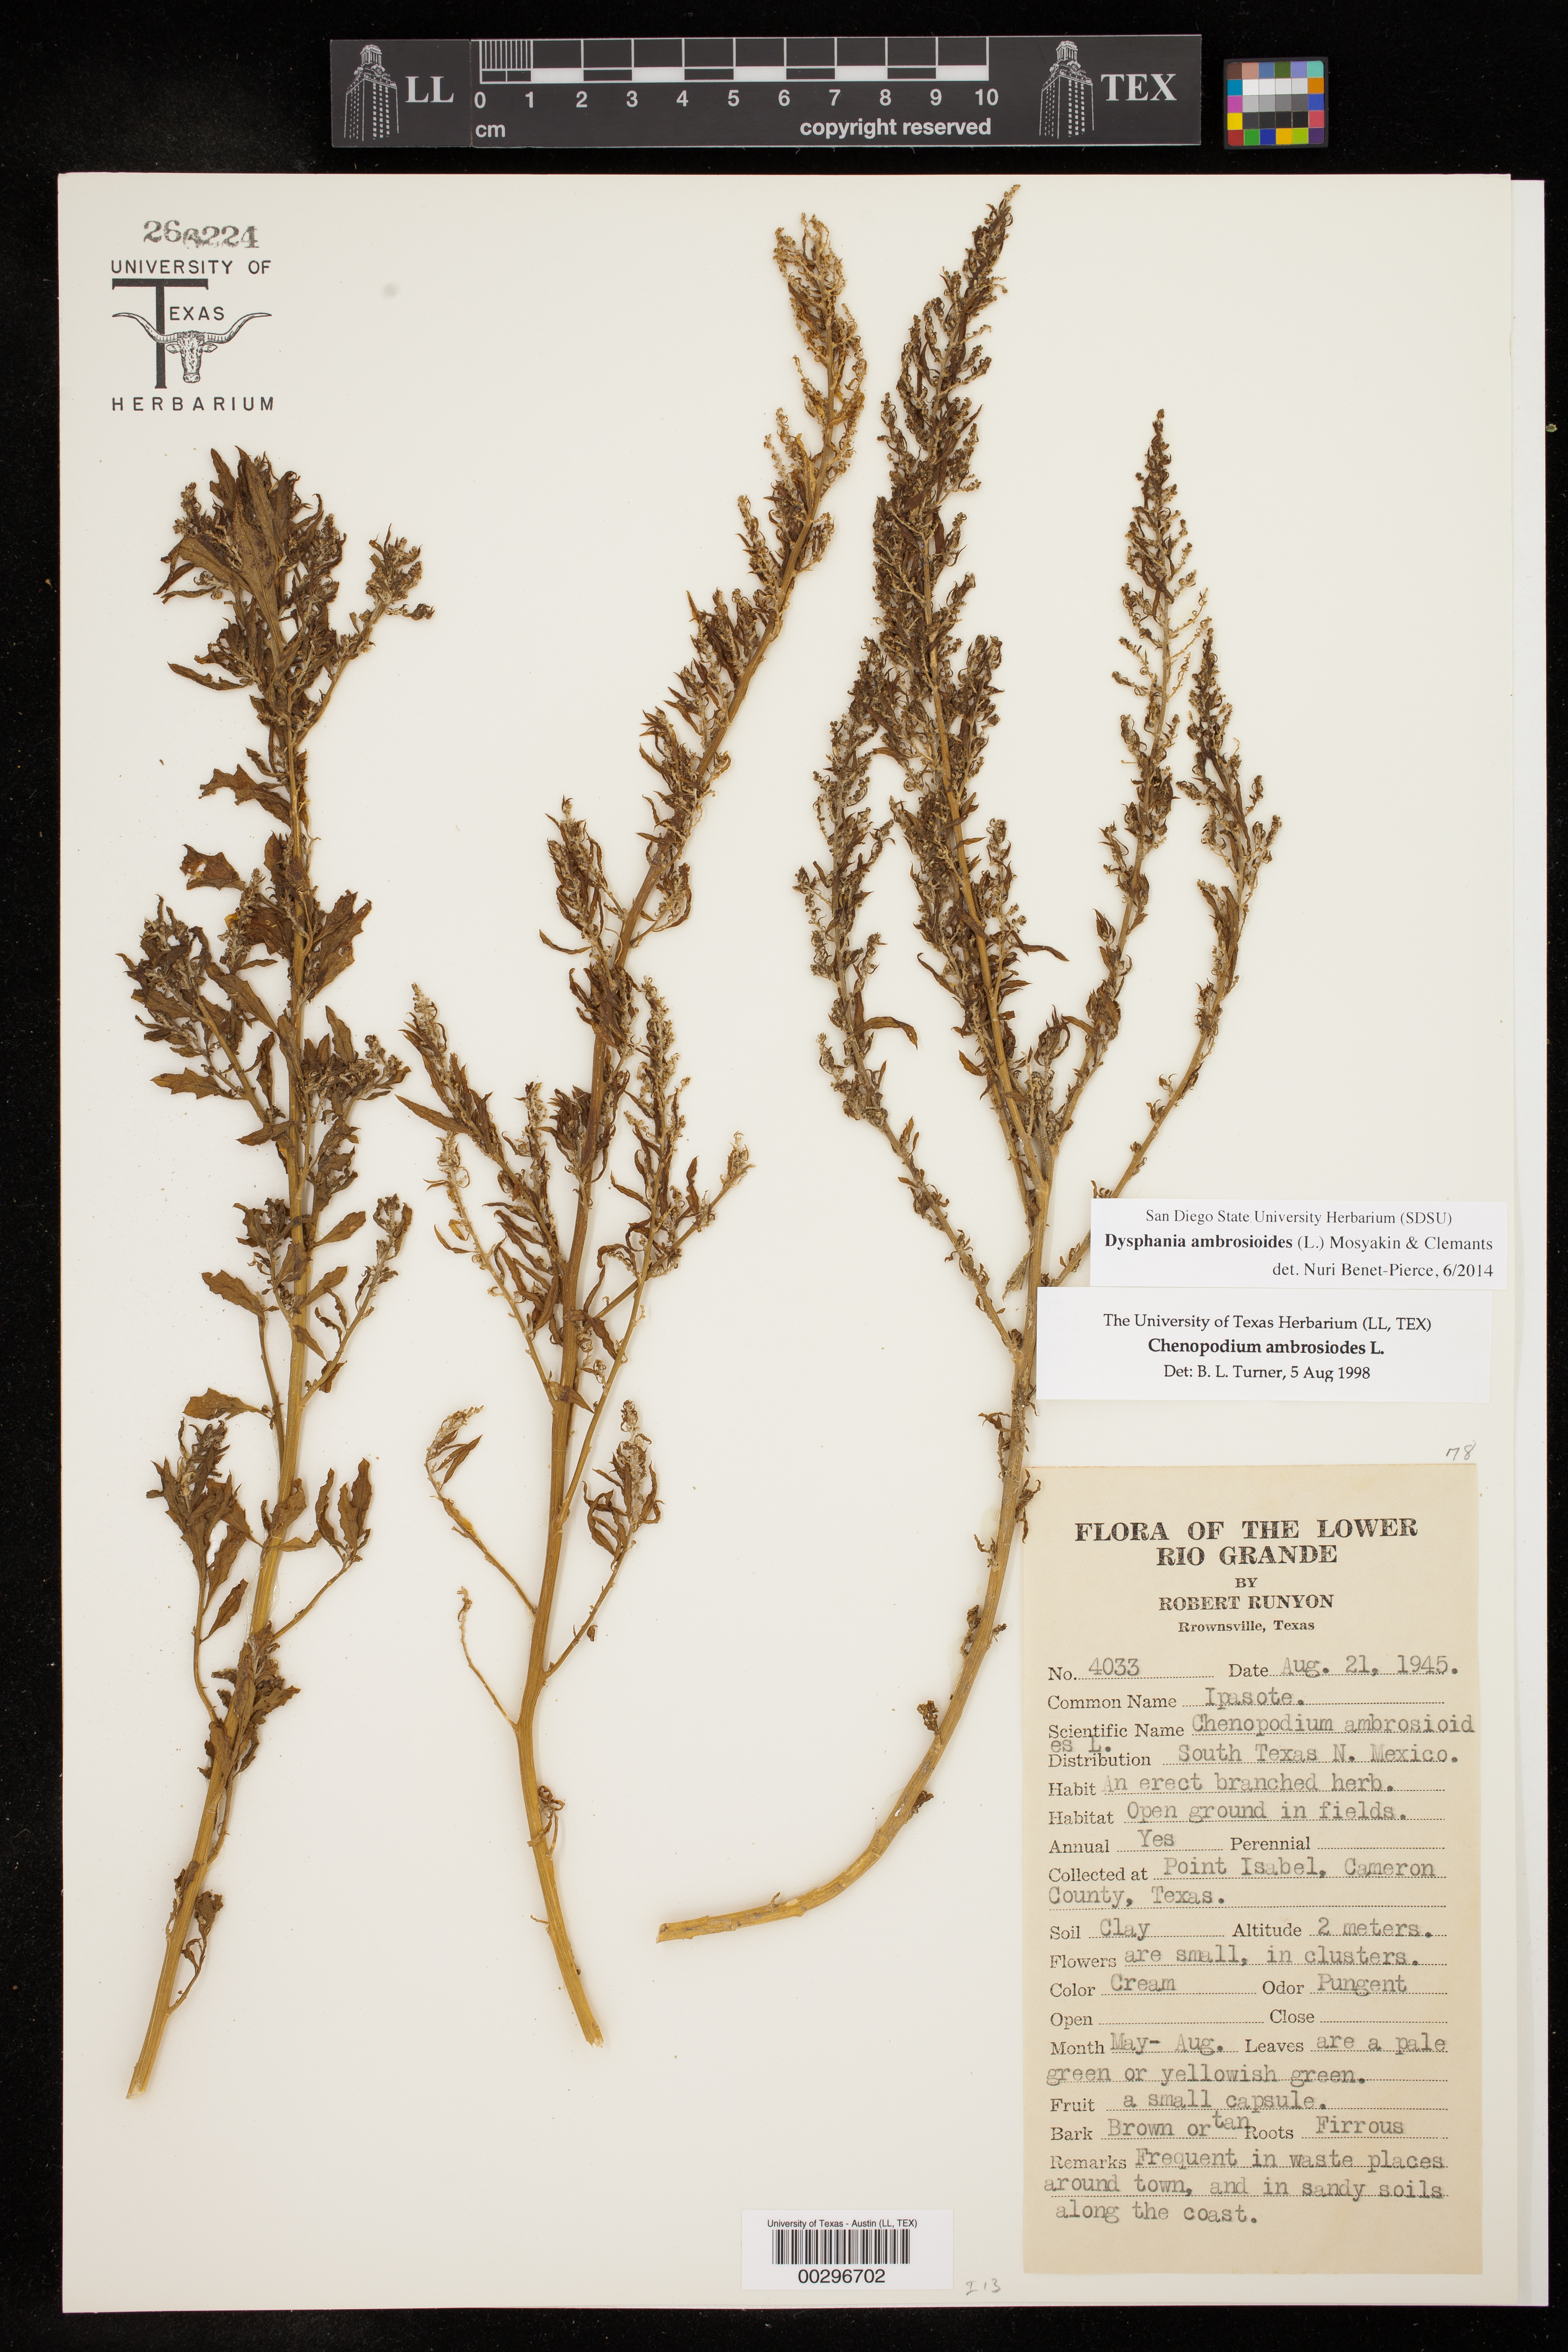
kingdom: Plantae
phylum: Tracheophyta
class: Magnoliopsida
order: Caryophyllales
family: Amaranthaceae
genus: Dysphania
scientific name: Dysphania ambrosioides
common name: Wormseed
